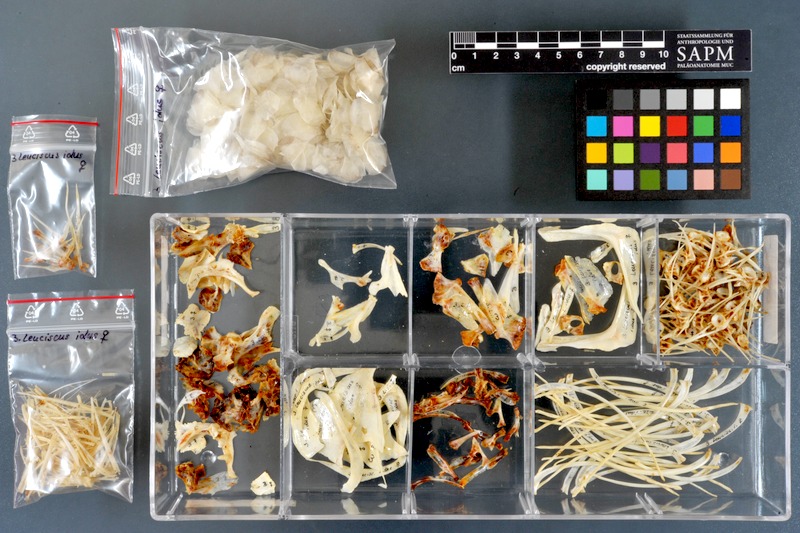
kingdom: Animalia
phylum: Chordata
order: Cypriniformes
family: Cyprinidae
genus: Leuciscus
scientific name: Leuciscus idus
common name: Ide
